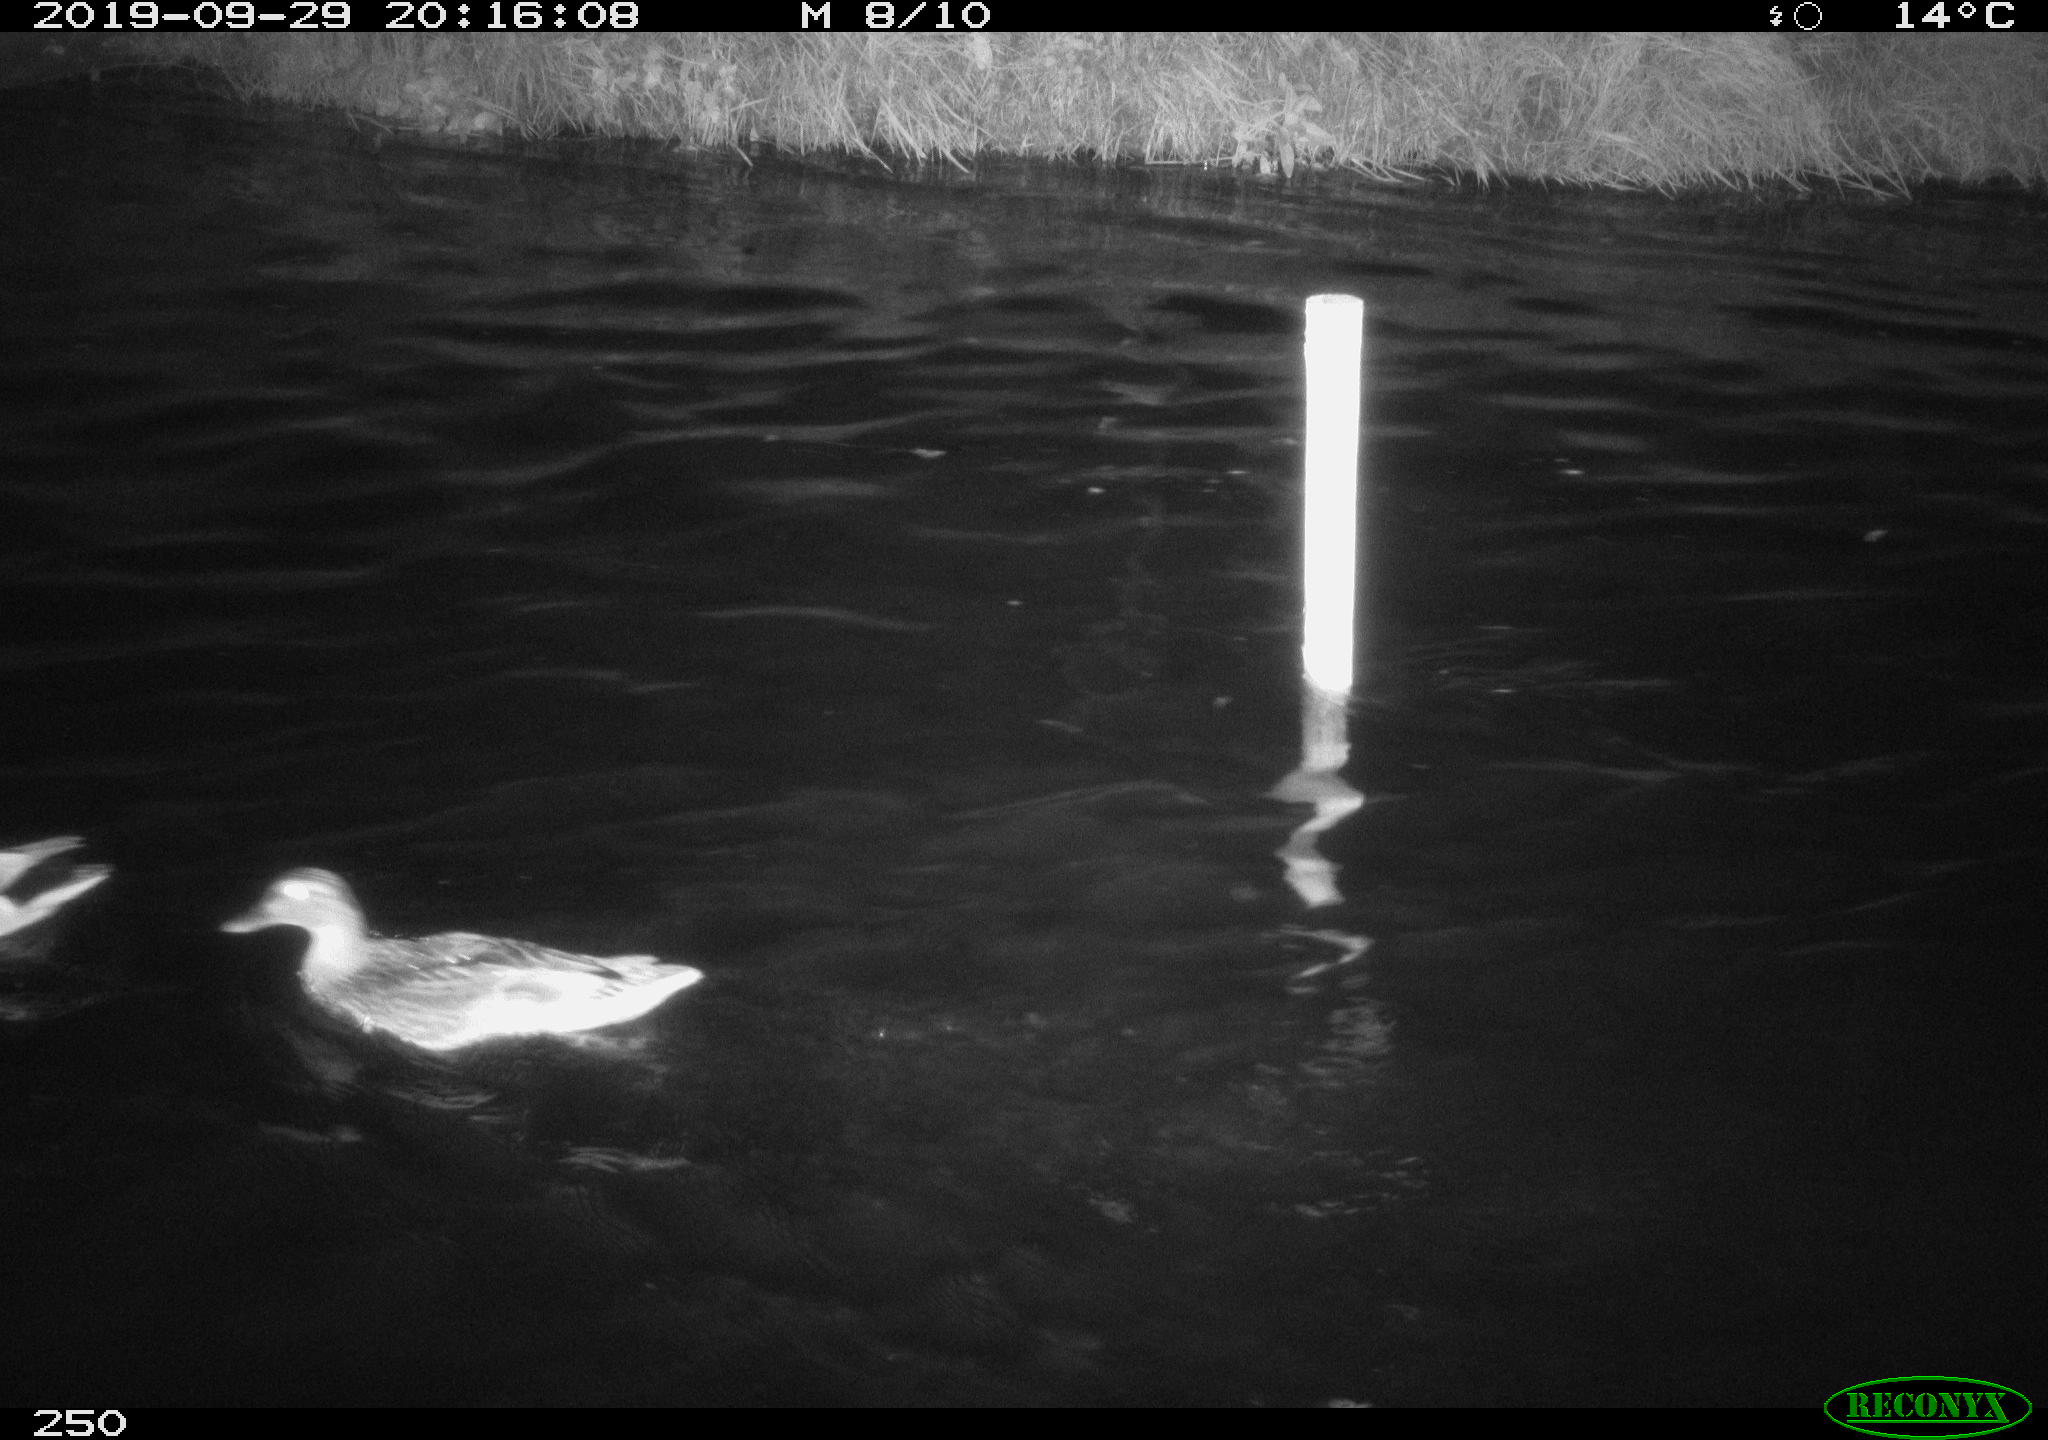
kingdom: Animalia
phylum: Chordata
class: Aves
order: Anseriformes
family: Anatidae
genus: Anas
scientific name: Anas platyrhynchos
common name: Mallard
